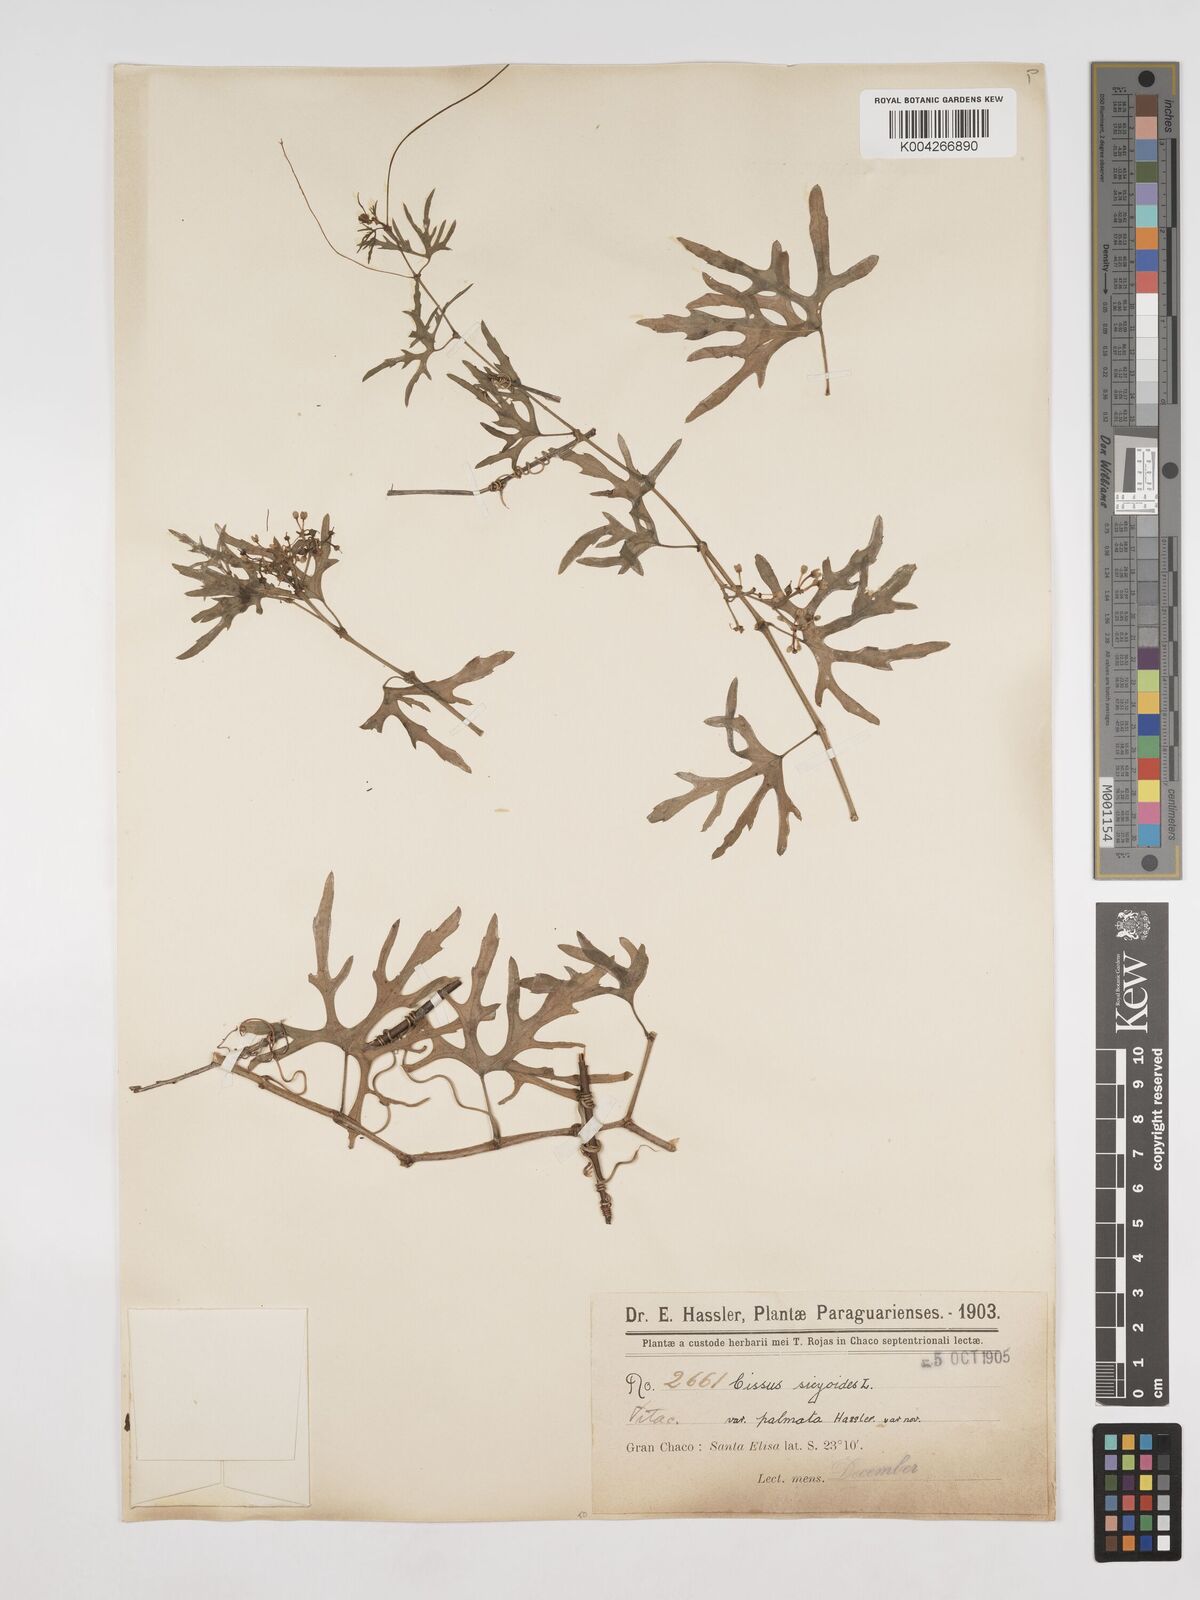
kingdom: Plantae
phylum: Tracheophyta
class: Magnoliopsida
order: Vitales
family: Vitaceae
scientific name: Vitaceae
